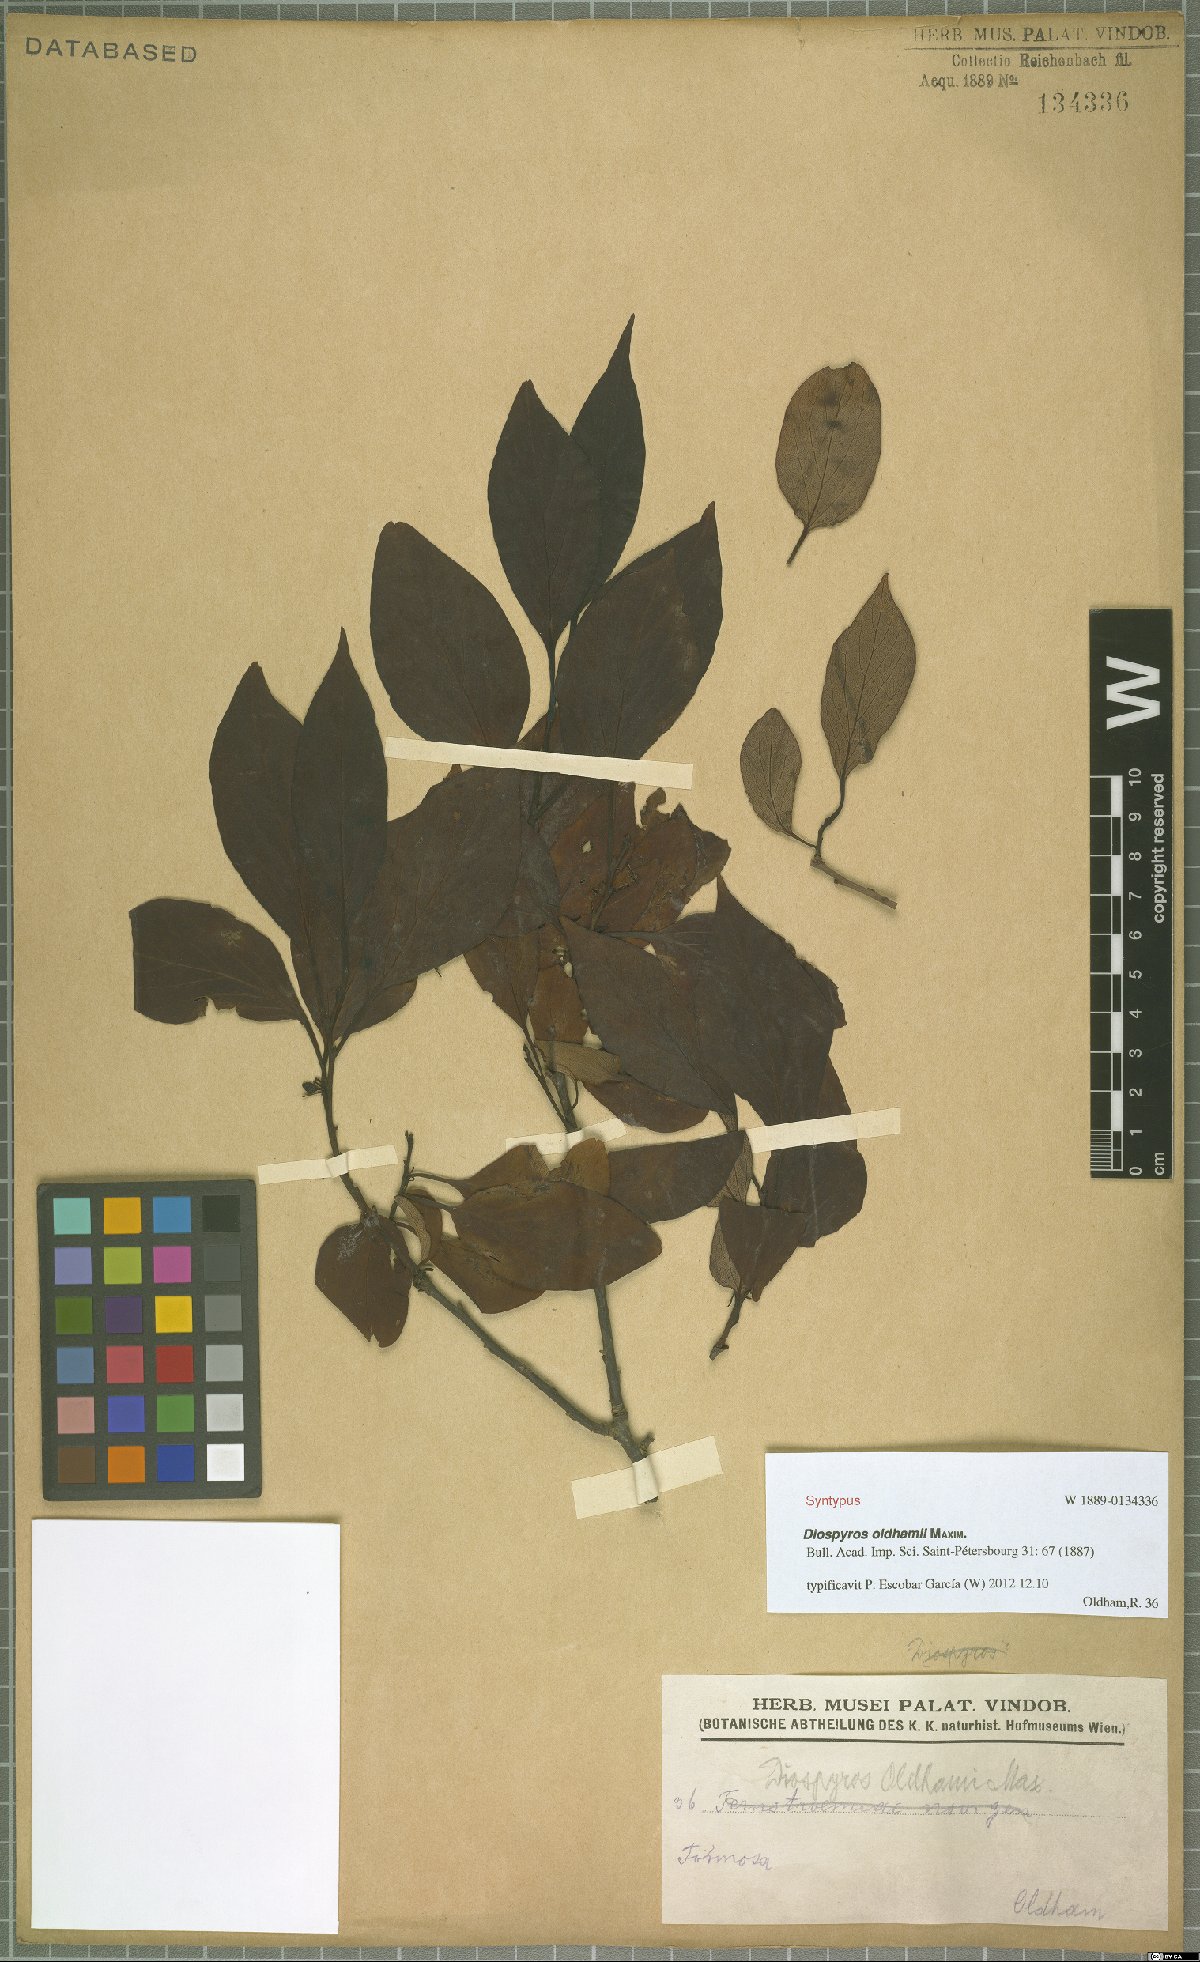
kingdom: Plantae
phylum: Tracheophyta
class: Magnoliopsida
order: Ericales
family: Ebenaceae
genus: Diospyros
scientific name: Diospyros oldhamii
